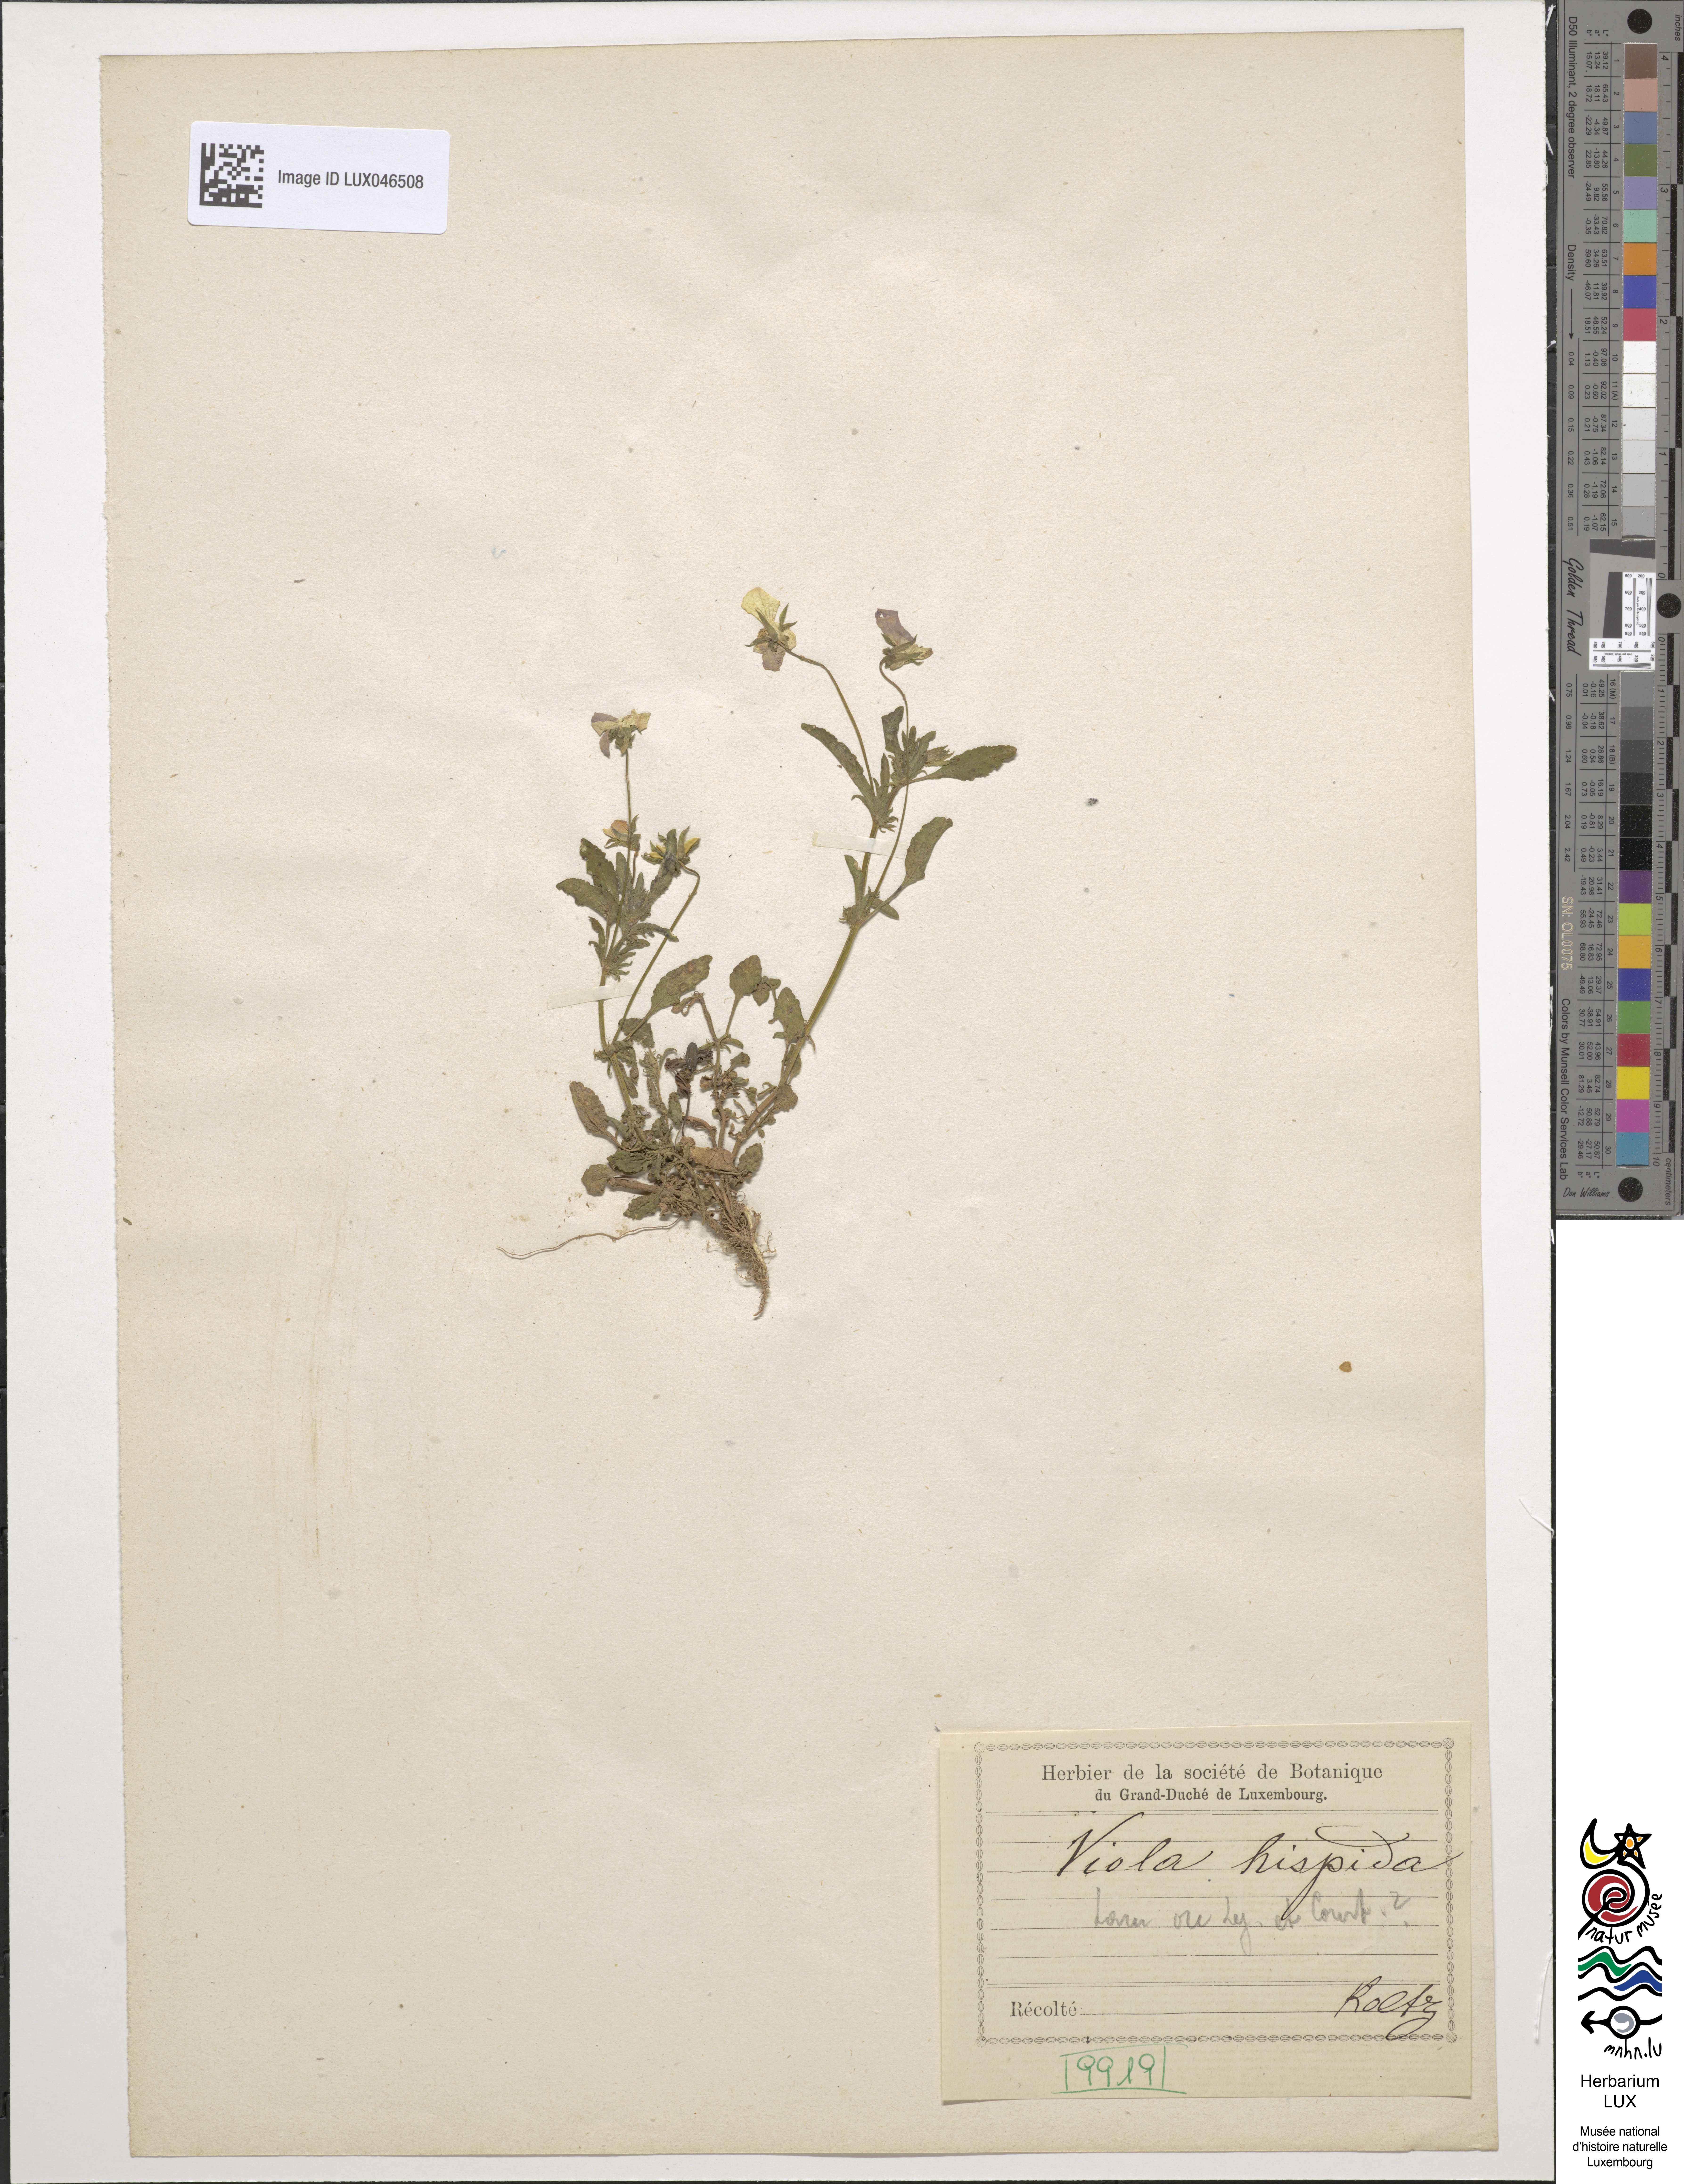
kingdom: Plantae
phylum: Tracheophyta
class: Magnoliopsida
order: Malpighiales
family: Violaceae
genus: Viola
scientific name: Viola hispida
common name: Rouen pansy
